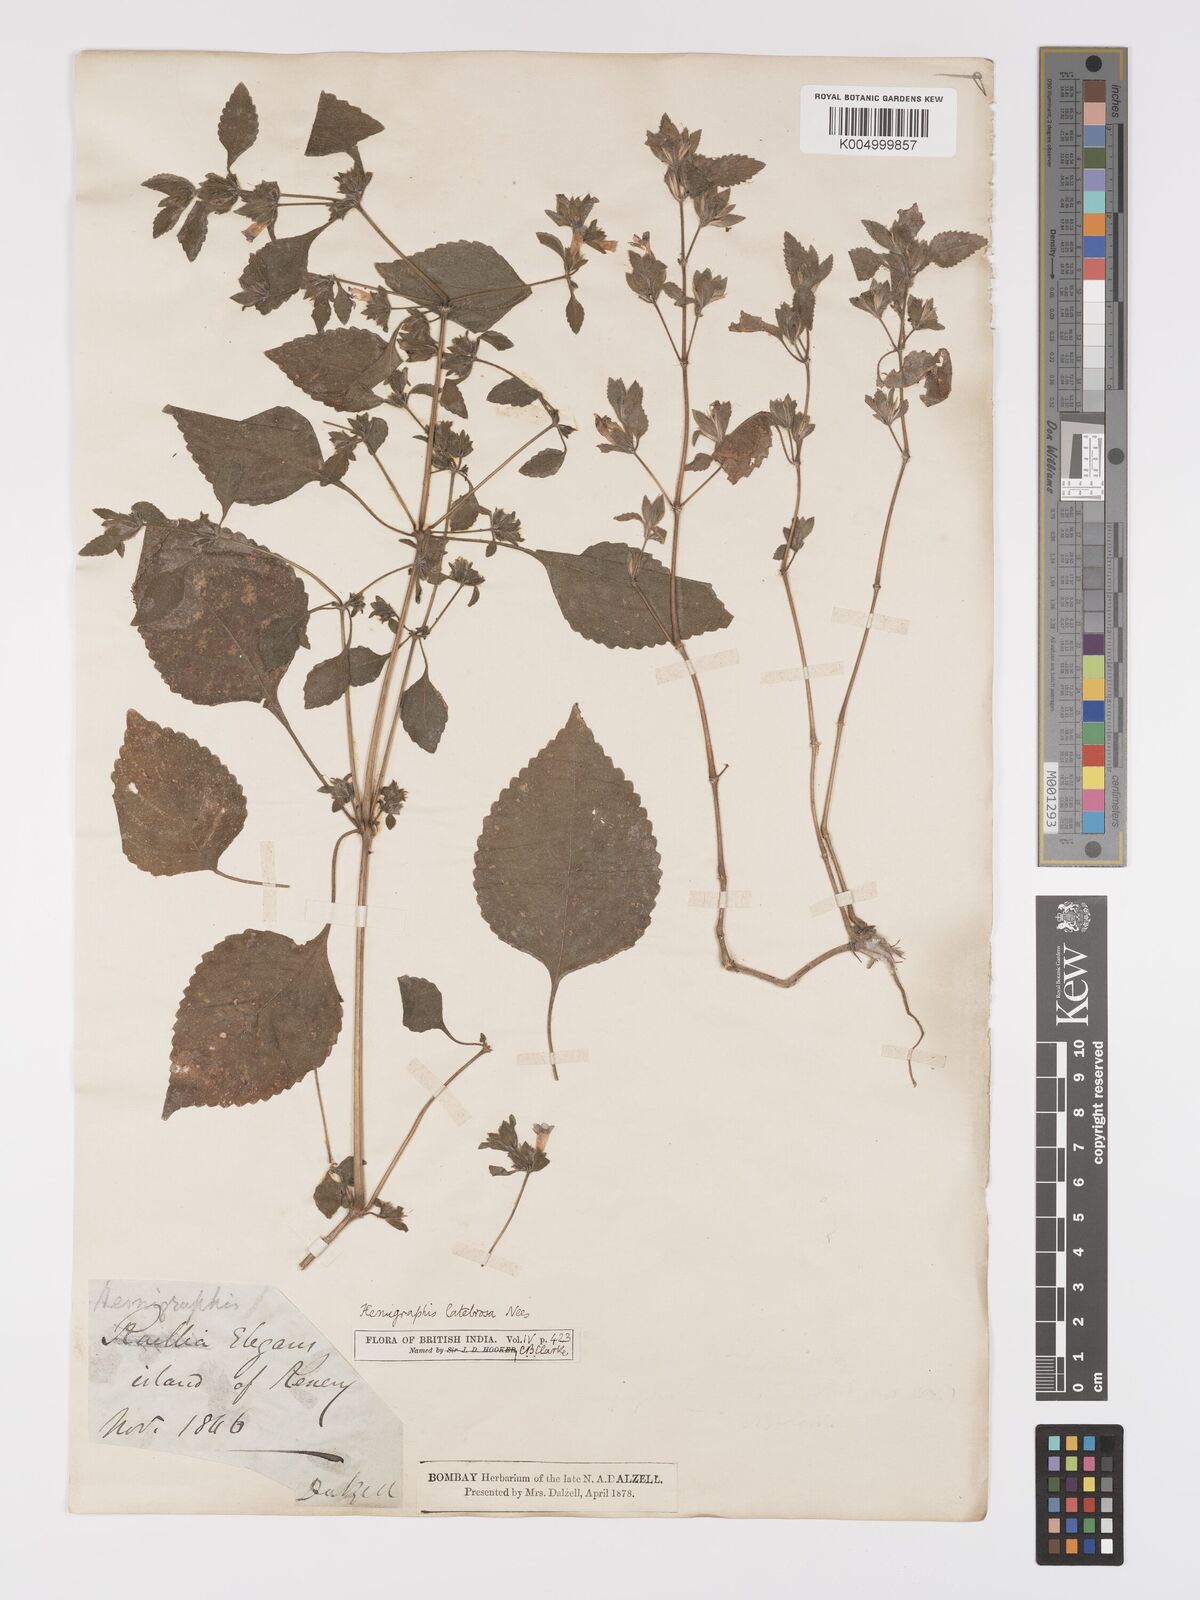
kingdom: Plantae
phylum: Tracheophyta
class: Magnoliopsida
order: Lamiales
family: Acanthaceae
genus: Strobilanthes
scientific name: Strobilanthes pavala
